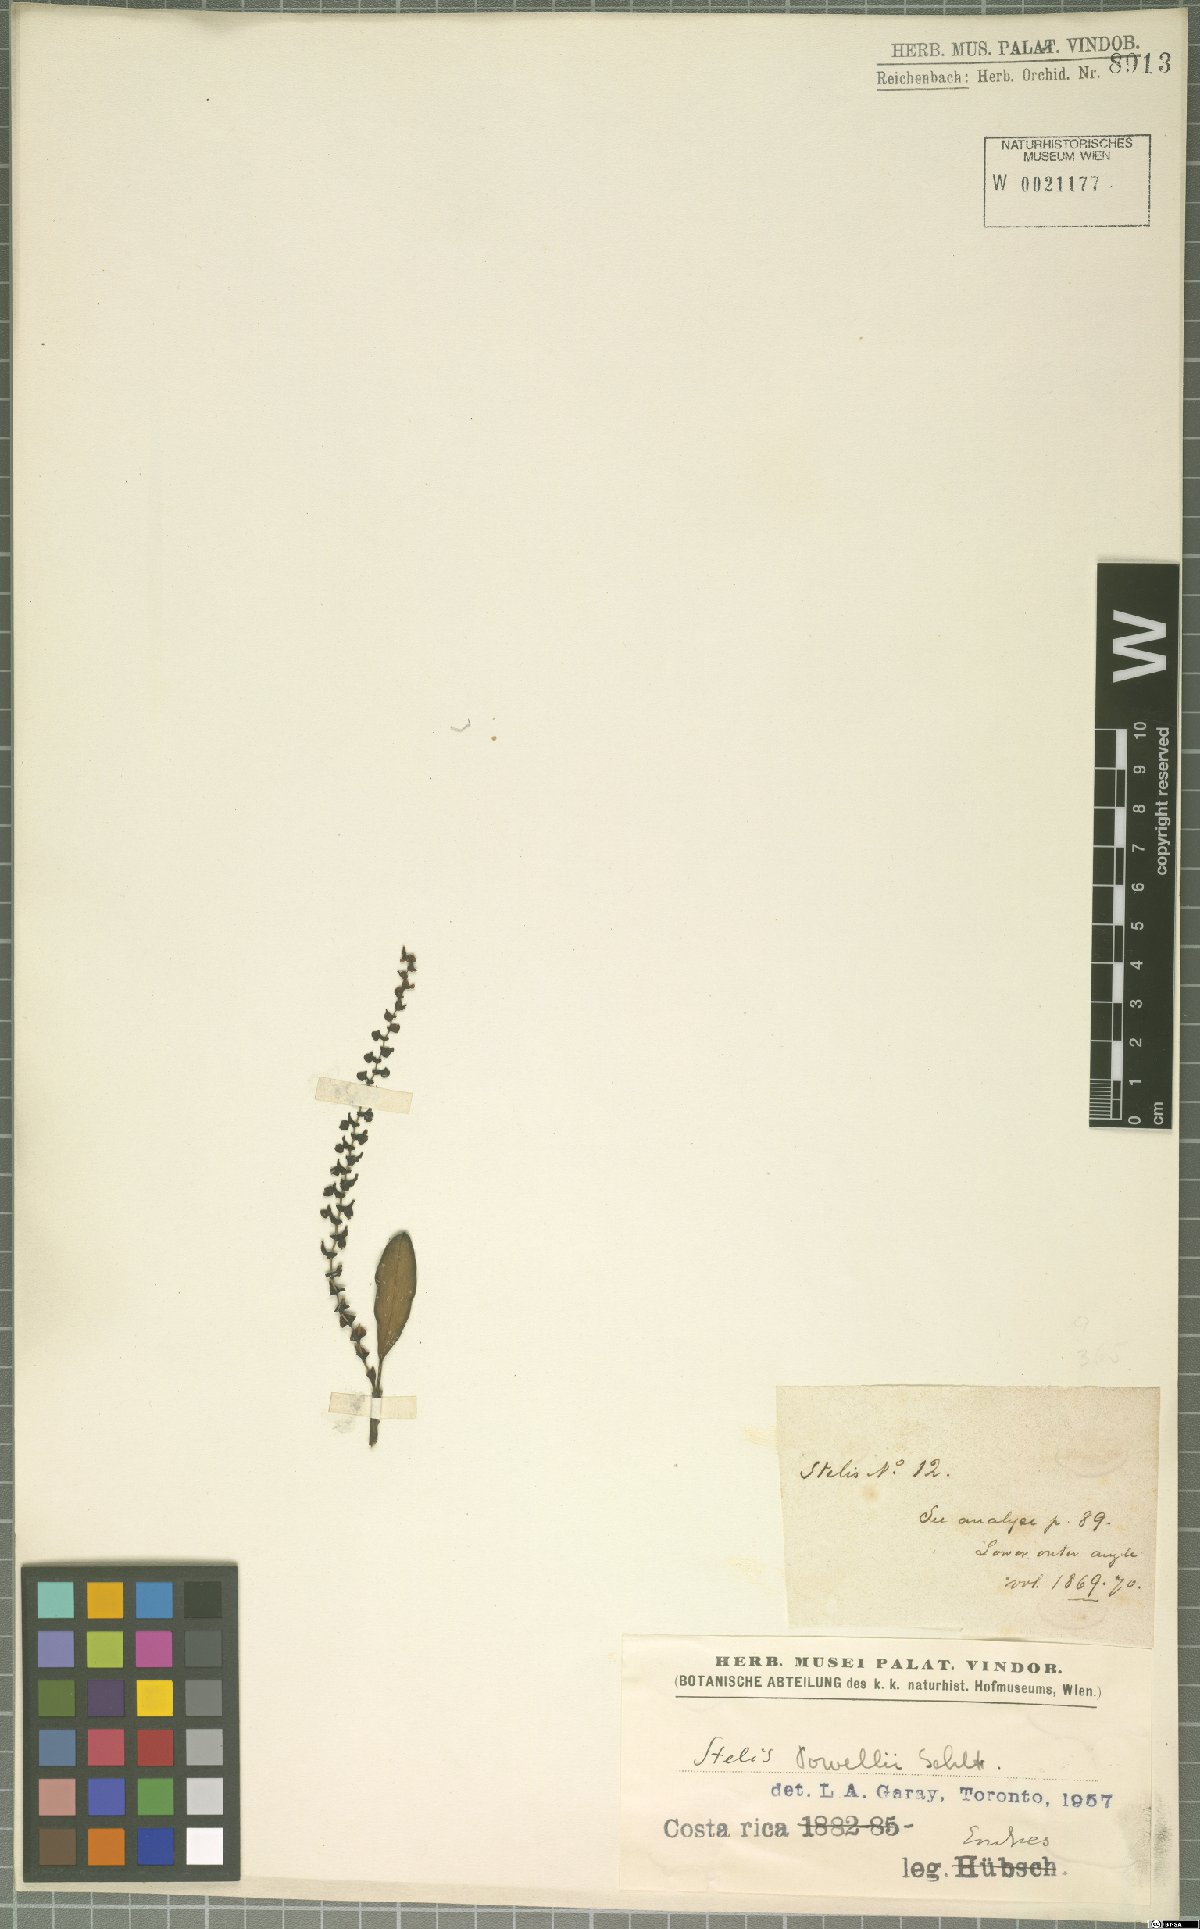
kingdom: Plantae
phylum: Tracheophyta
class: Liliopsida
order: Asparagales
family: Orchidaceae
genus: Stelis
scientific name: Stelis powellii
